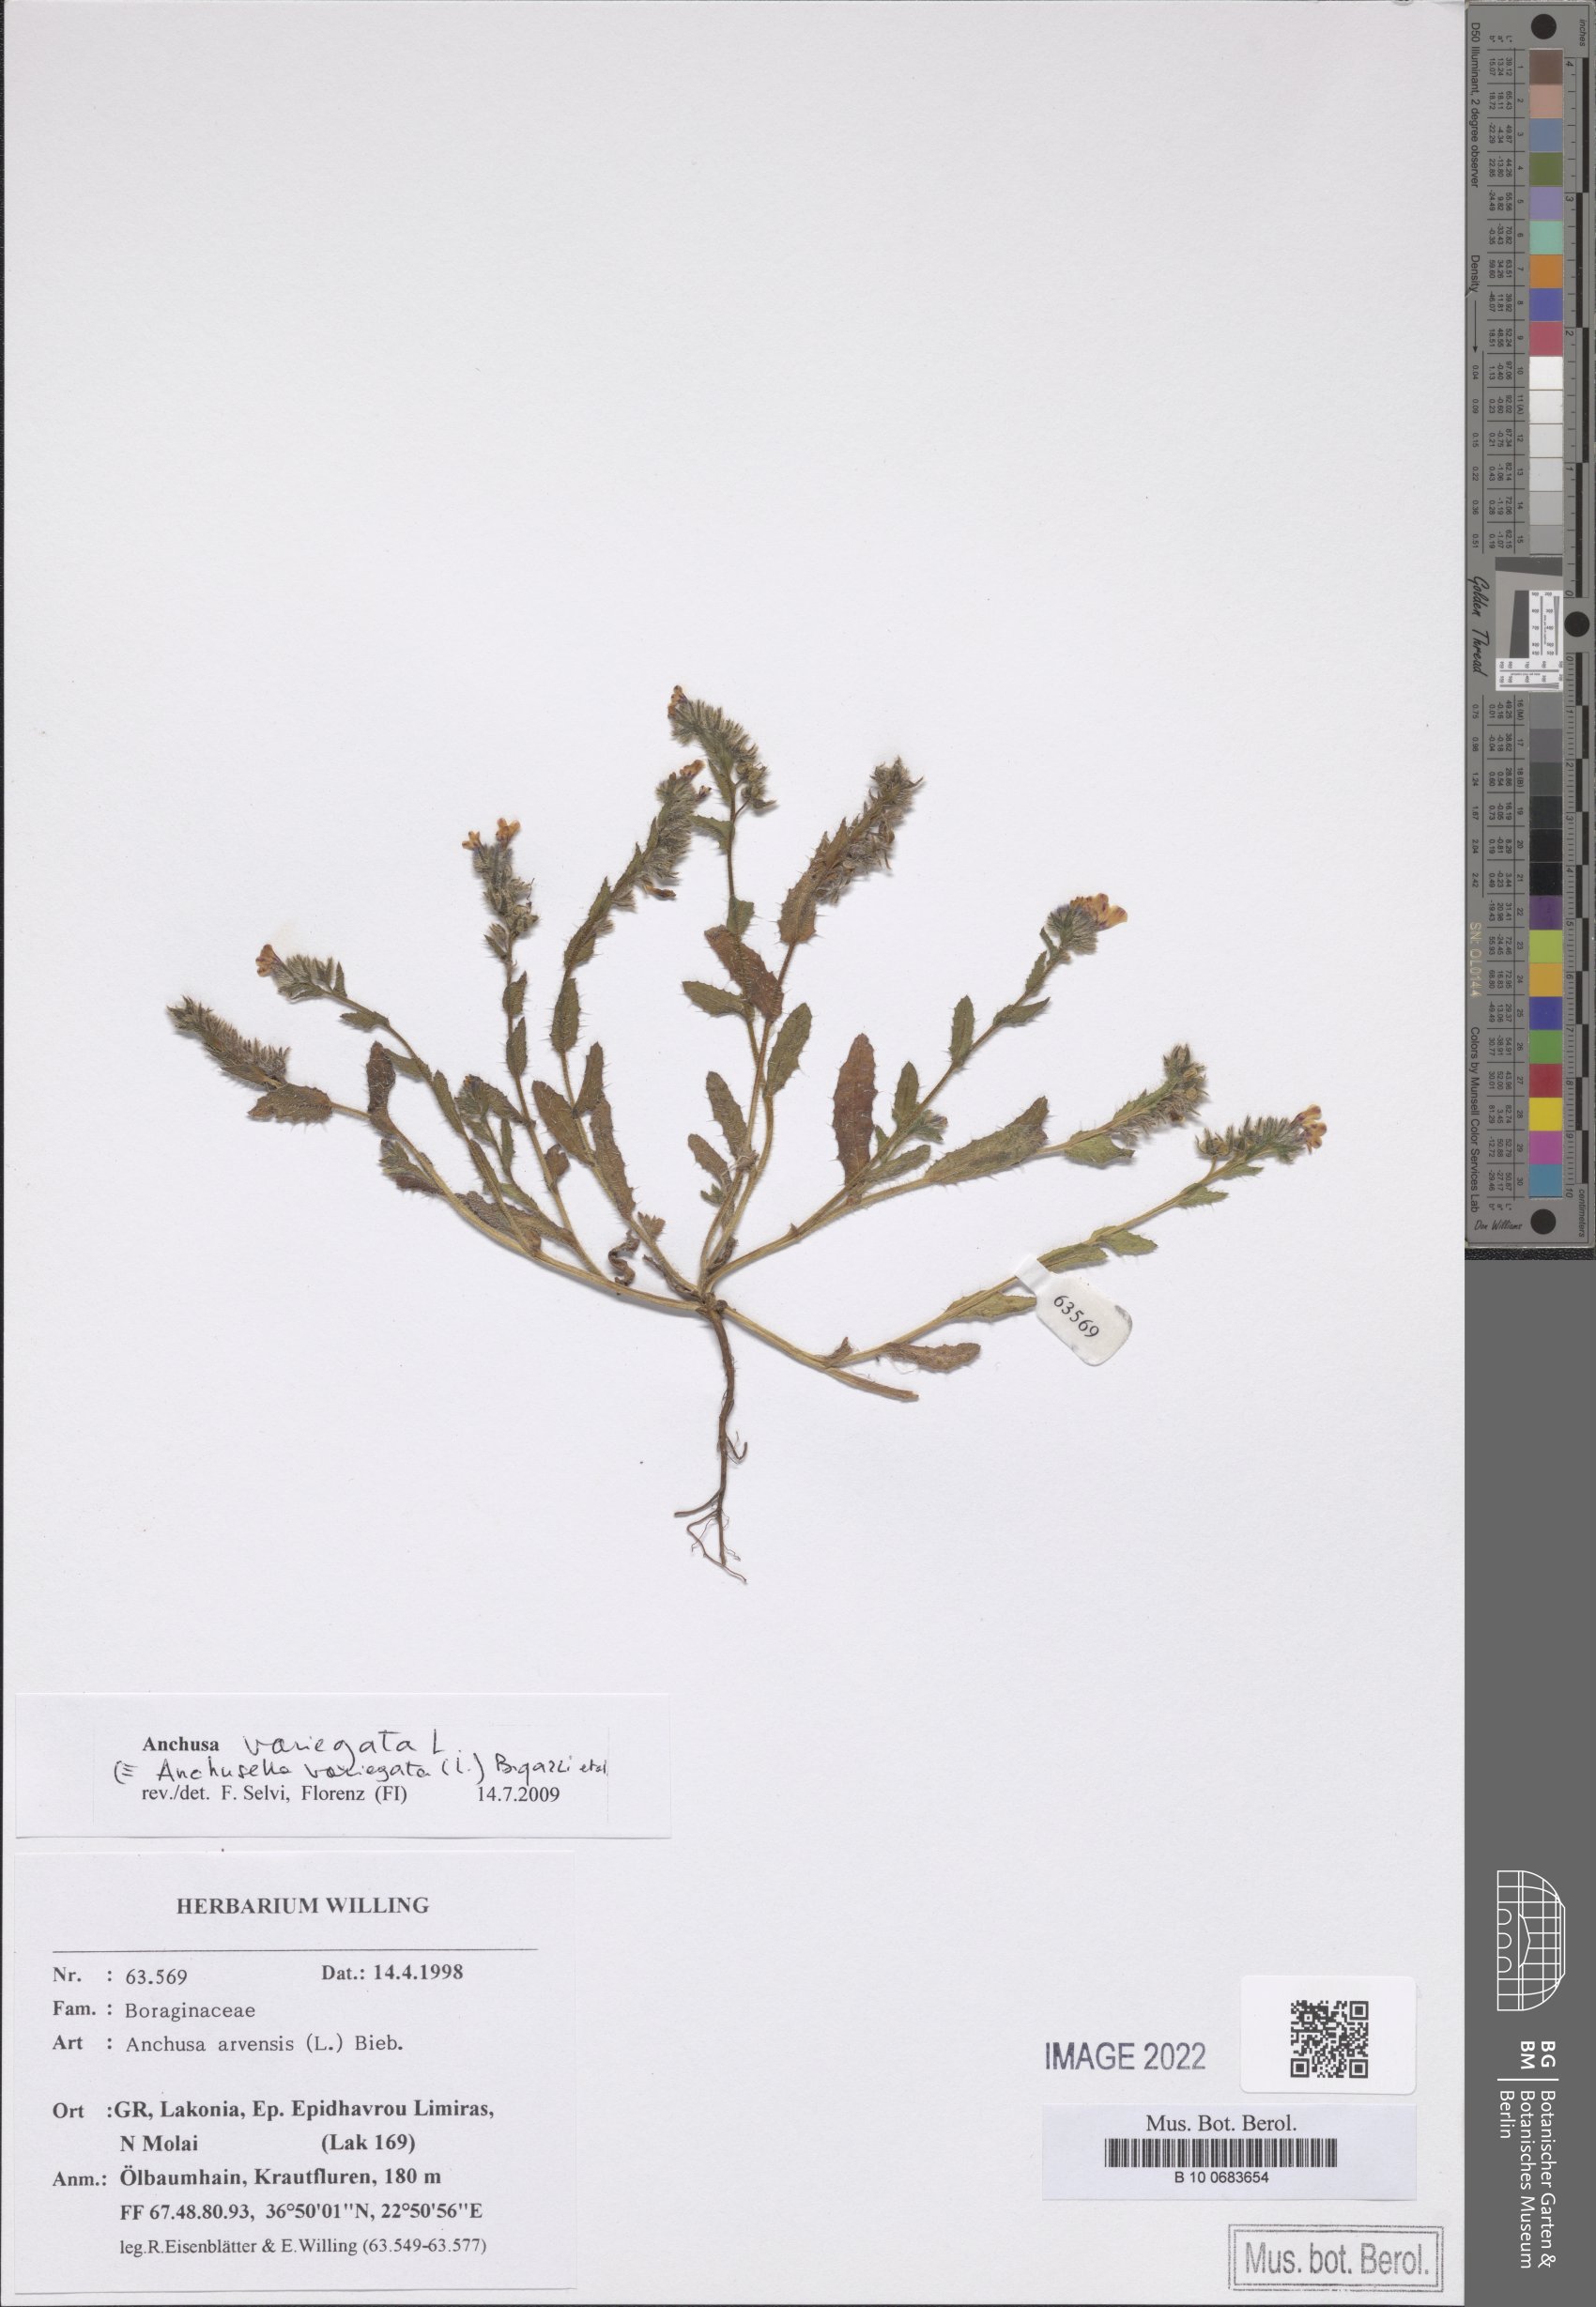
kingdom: Plantae
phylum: Tracheophyta
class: Magnoliopsida
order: Boraginales
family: Boraginaceae
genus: Anchusella
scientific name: Anchusella variegata
